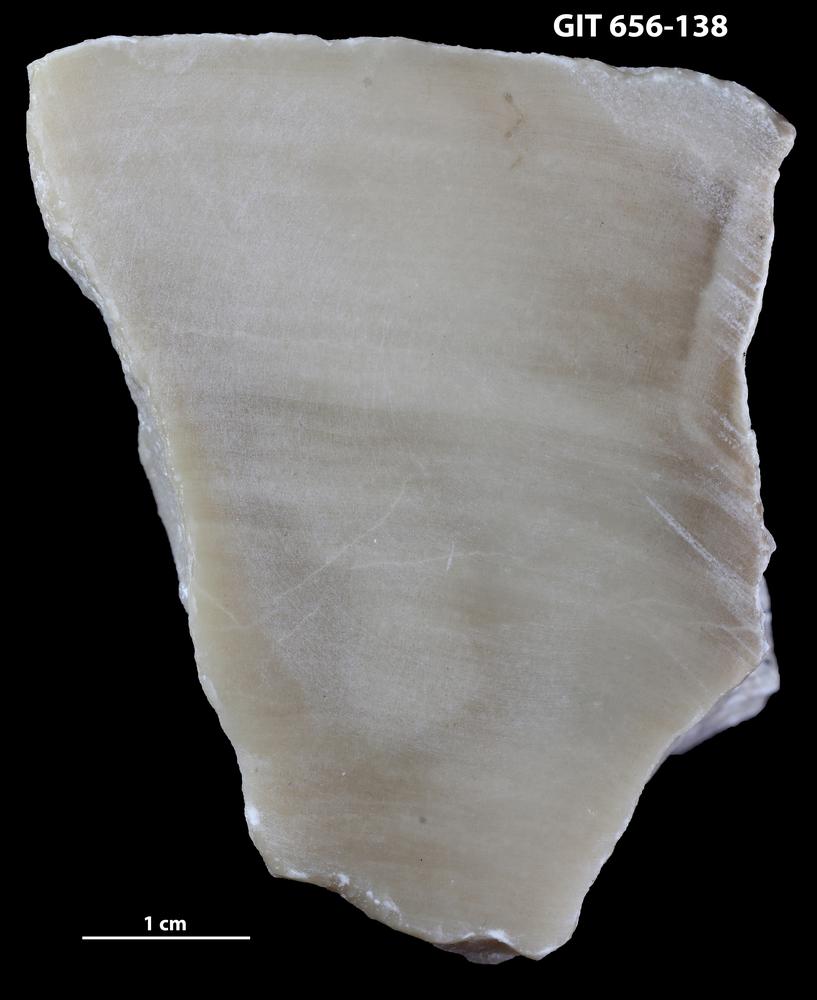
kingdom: Animalia
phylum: Porifera
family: Stromatoporidae
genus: Stromatopora
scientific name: Stromatopora
